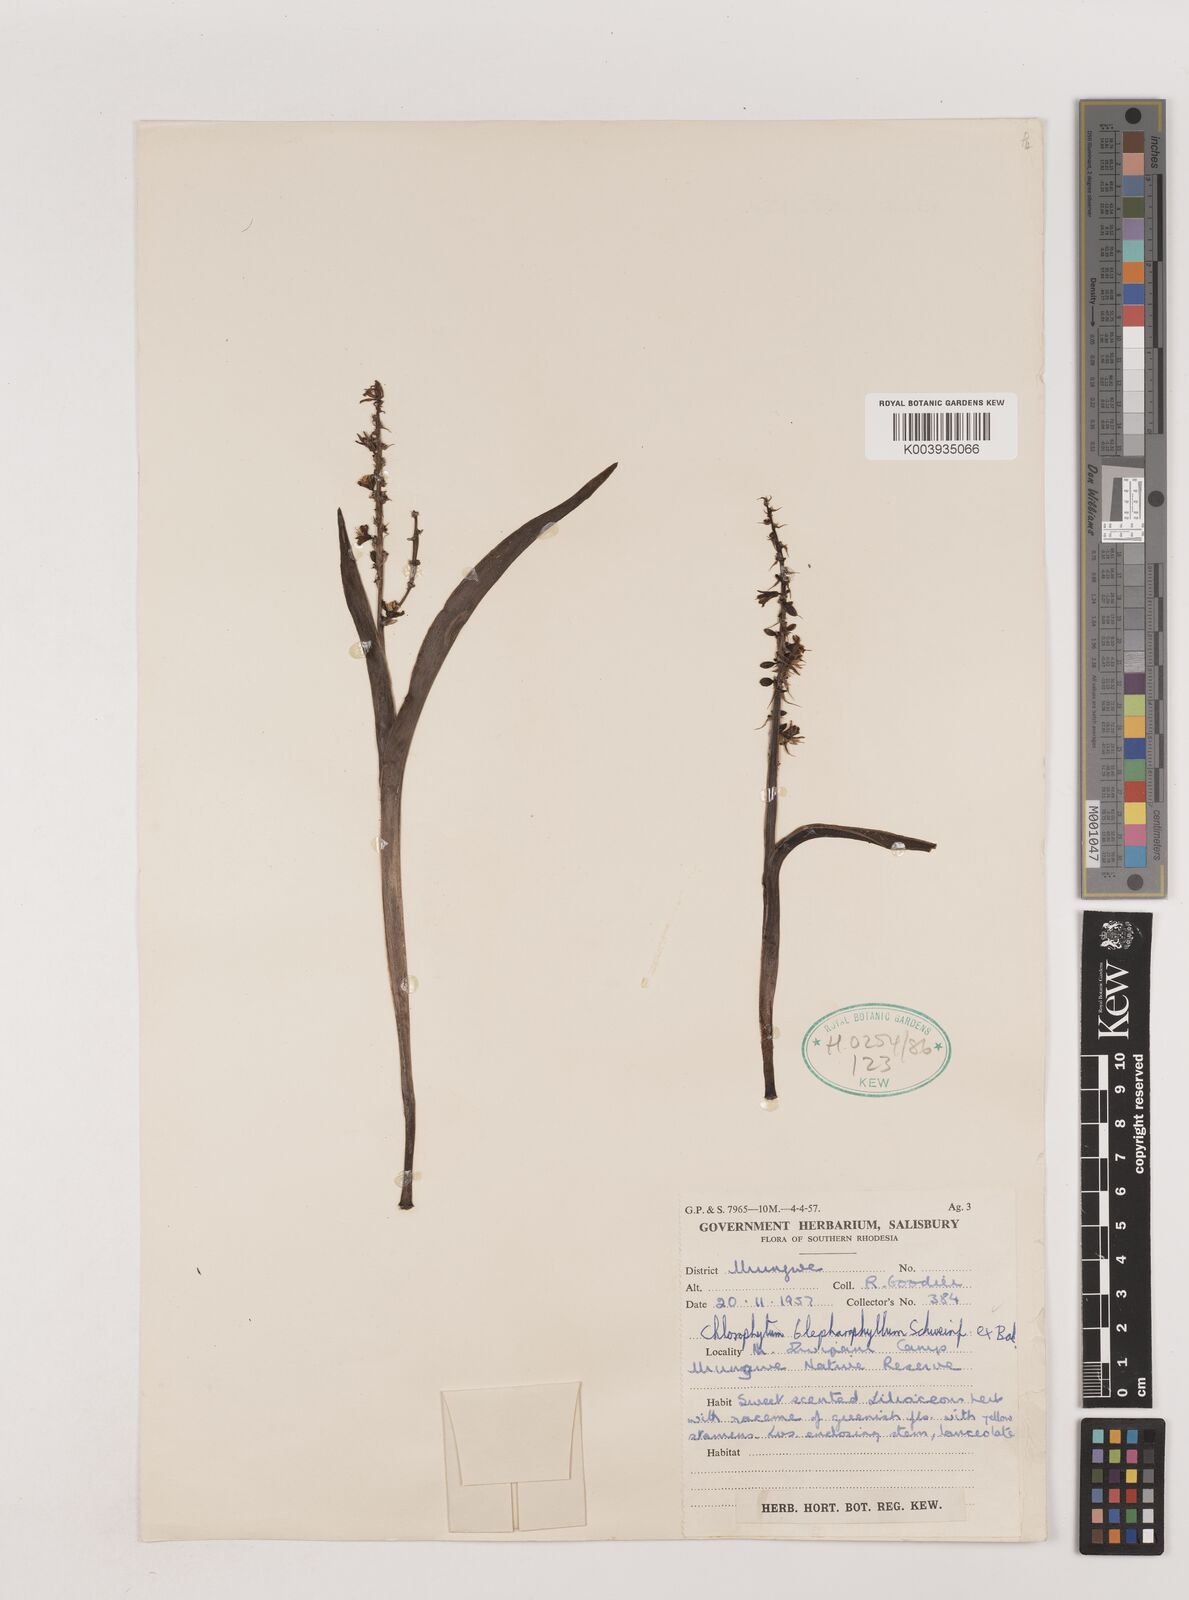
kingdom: Plantae
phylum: Tracheophyta
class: Liliopsida
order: Asparagales
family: Asparagaceae
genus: Chlorophytum
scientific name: Chlorophytum blepharophyllum
